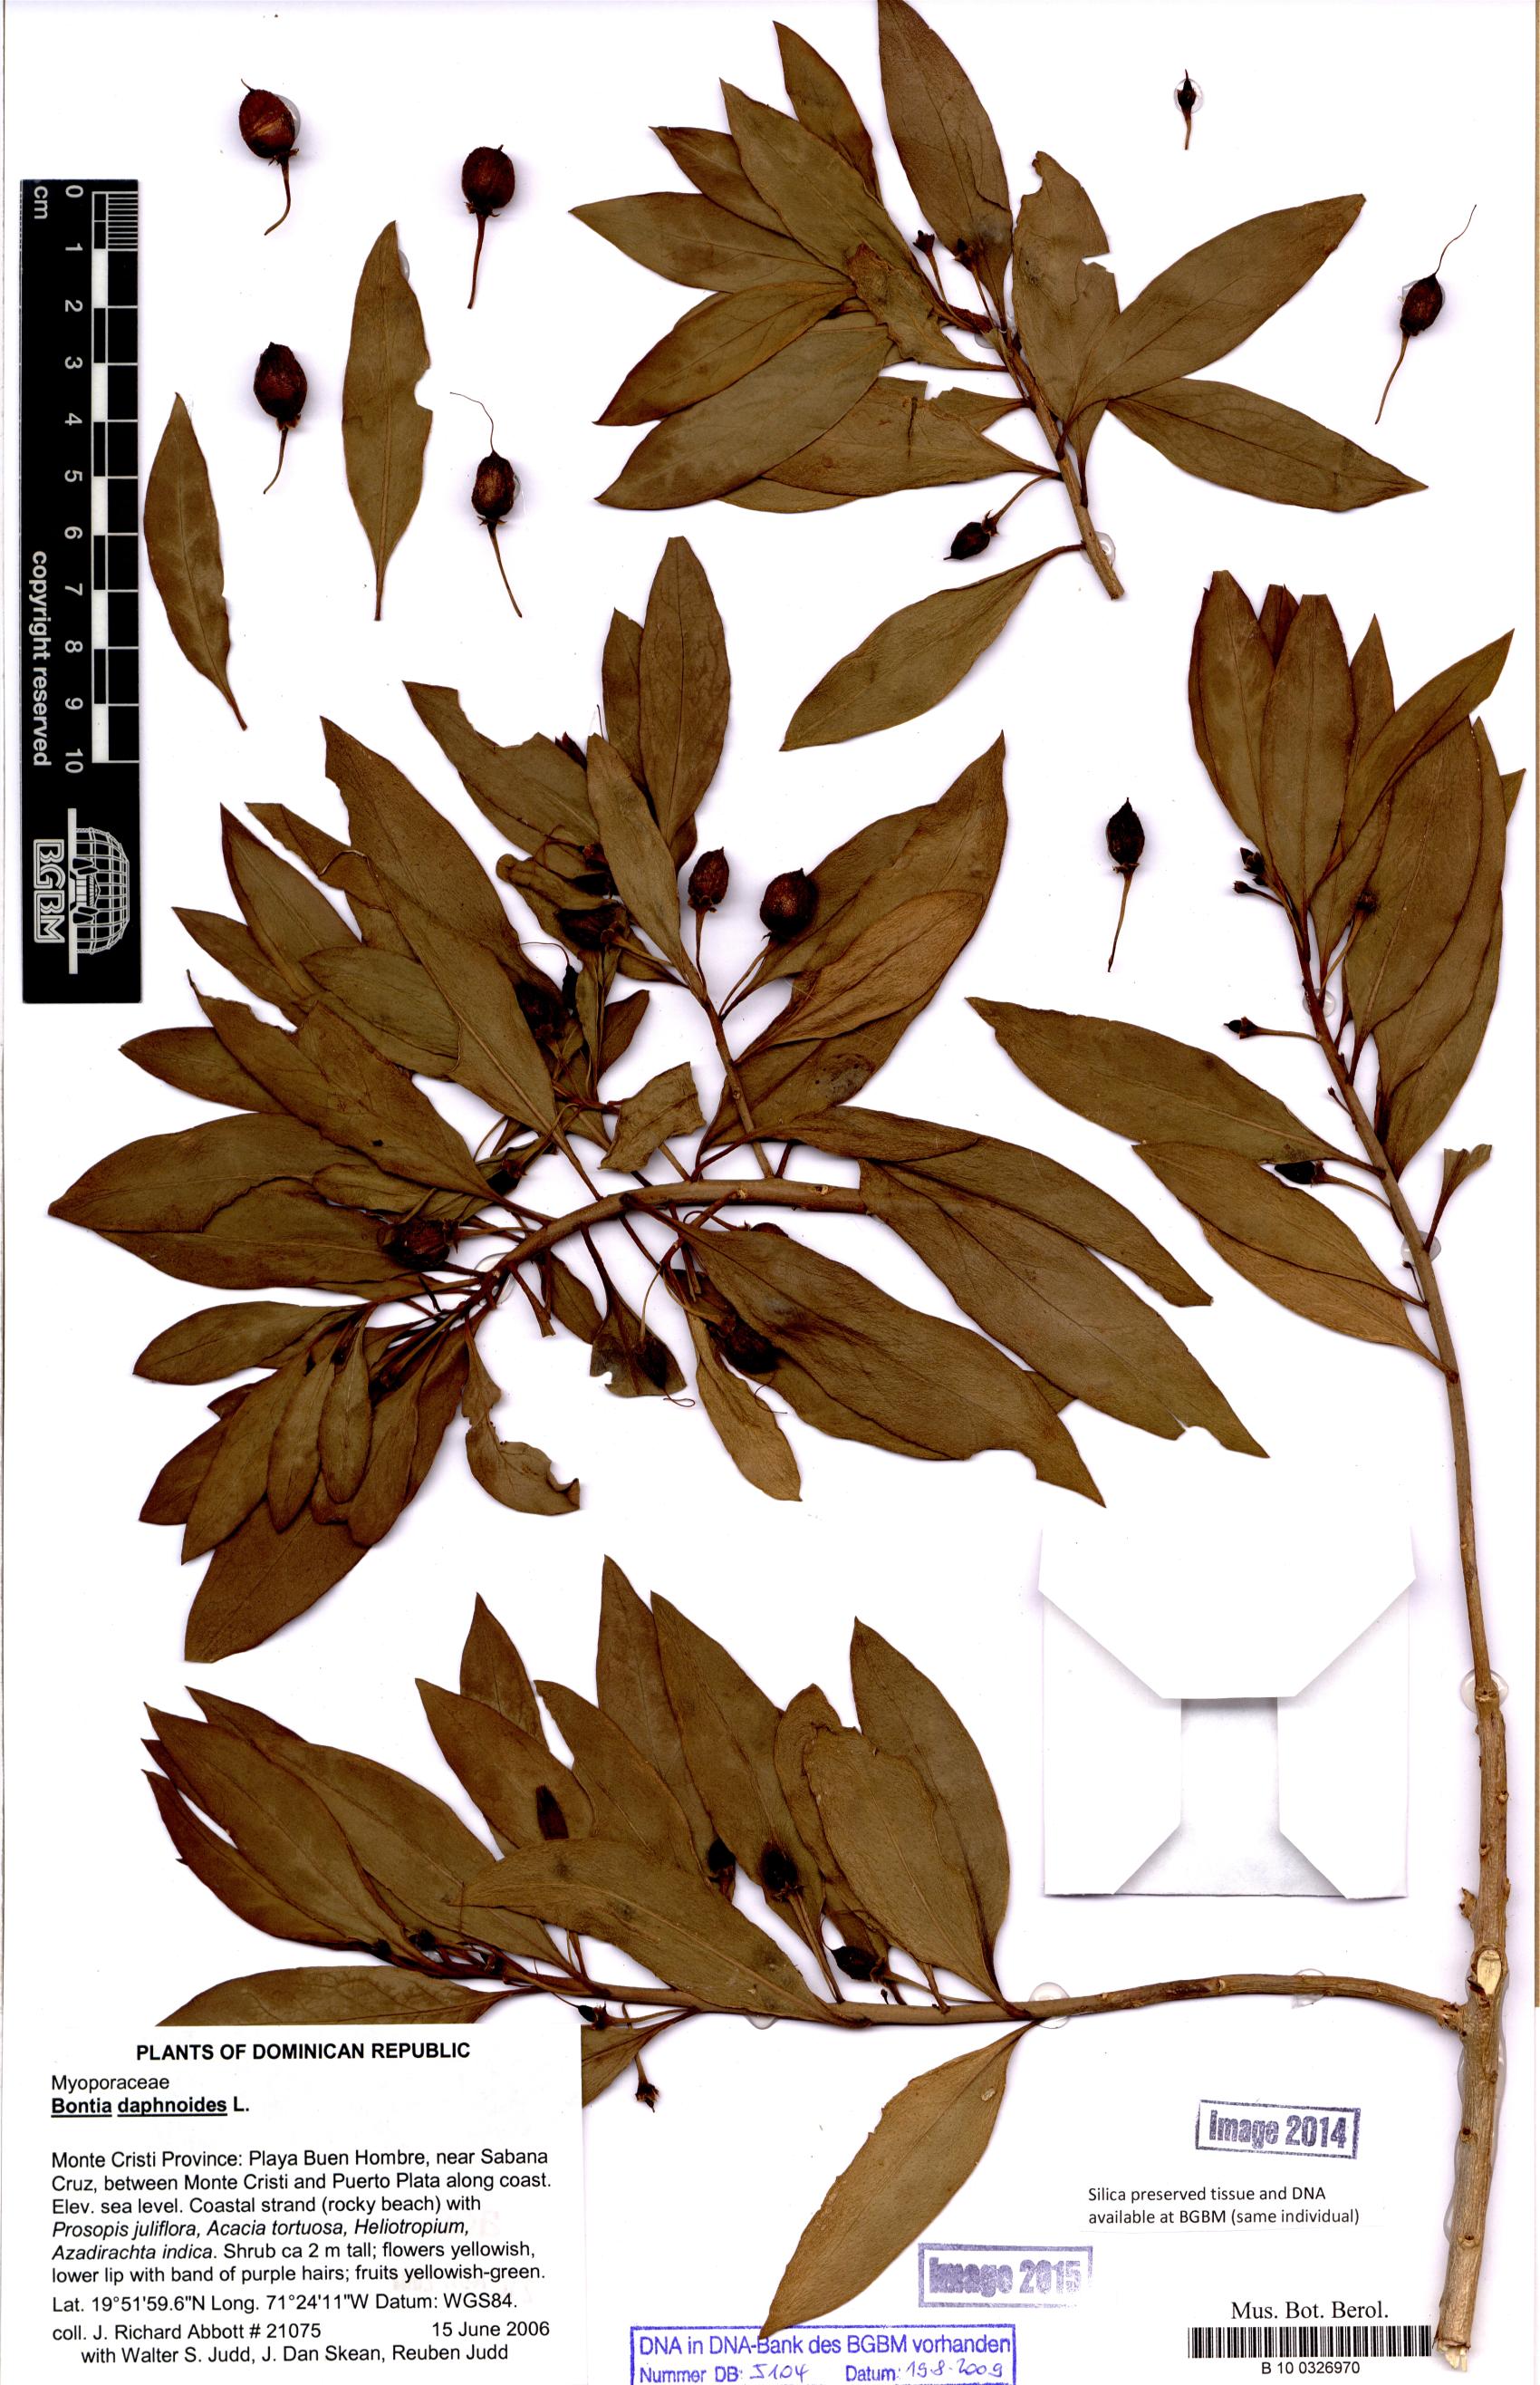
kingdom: Plantae
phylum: Tracheophyta
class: Magnoliopsida
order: Lamiales
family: Scrophulariaceae
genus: Bontia
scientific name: Bontia daphnoides
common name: Wild olive
